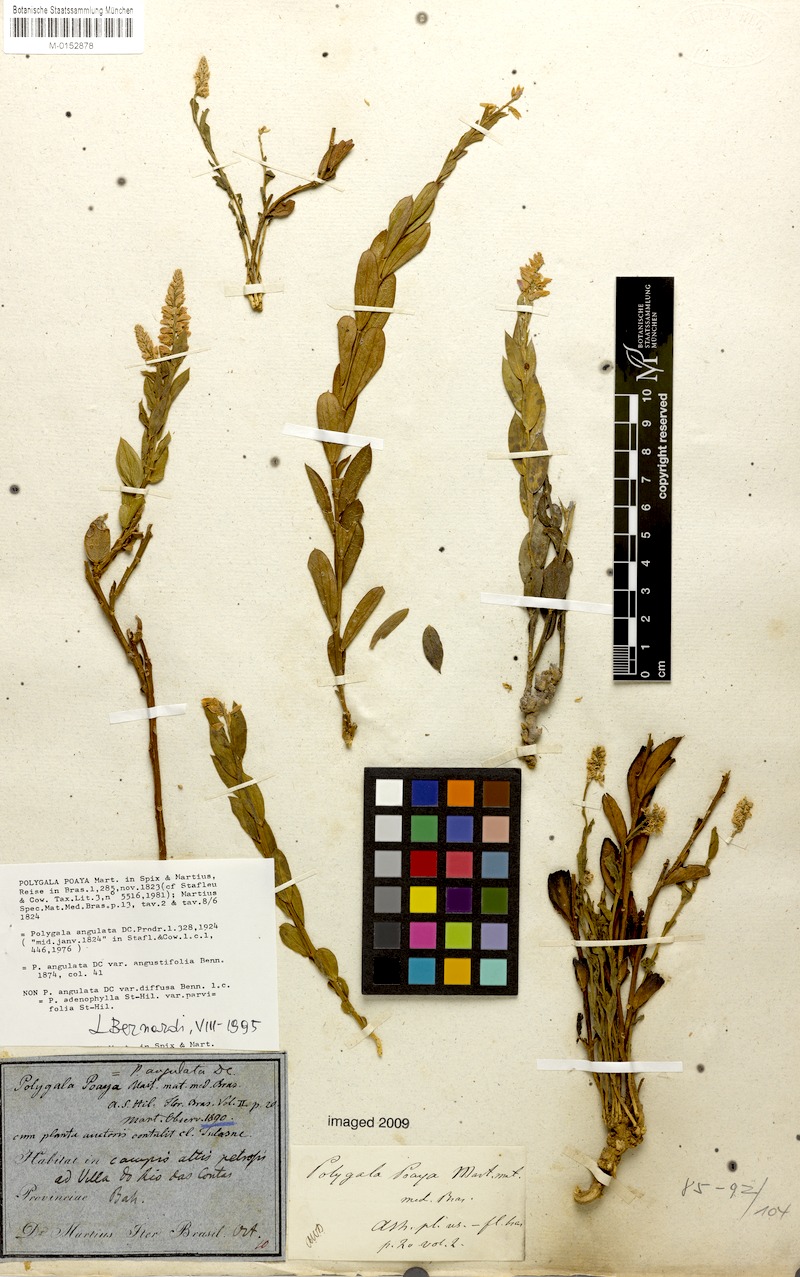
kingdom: Plantae
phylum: Tracheophyta
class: Magnoliopsida
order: Fabales
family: Polygalaceae
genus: Polygala
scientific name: Polygala poaya
